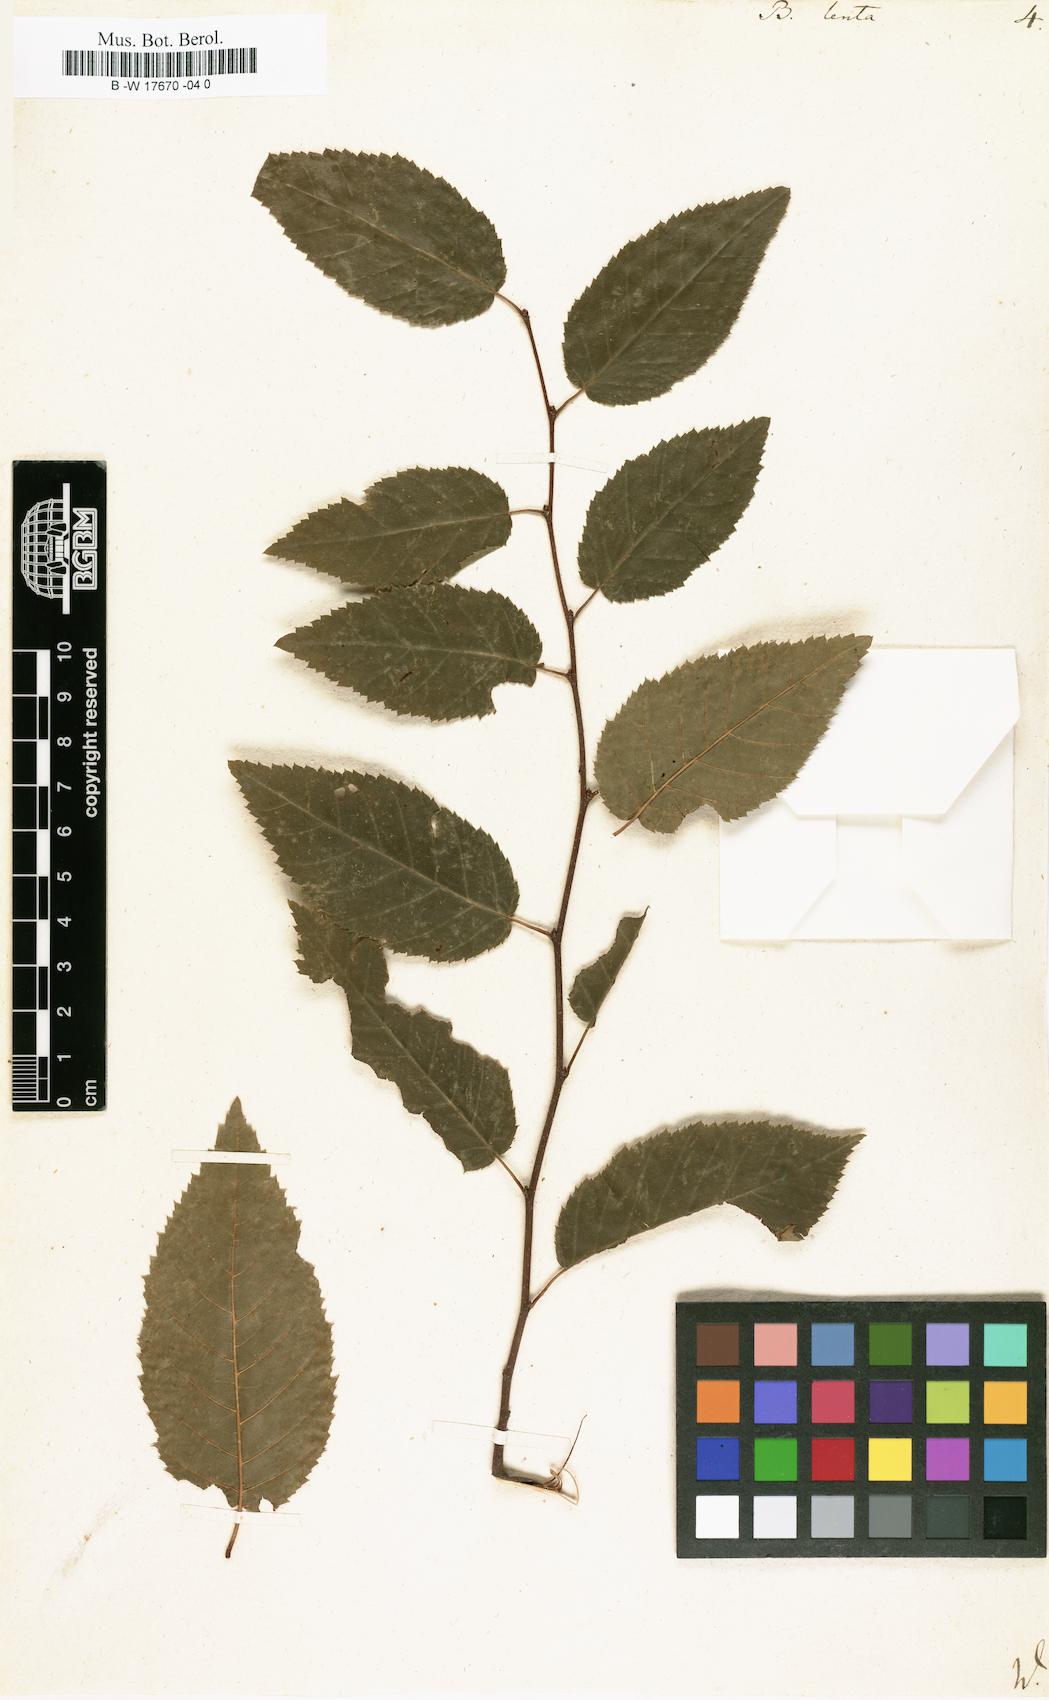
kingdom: Plantae
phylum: Tracheophyta
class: Magnoliopsida
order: Fagales
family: Betulaceae
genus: Betula
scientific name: Betula lenta
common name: Black birch
